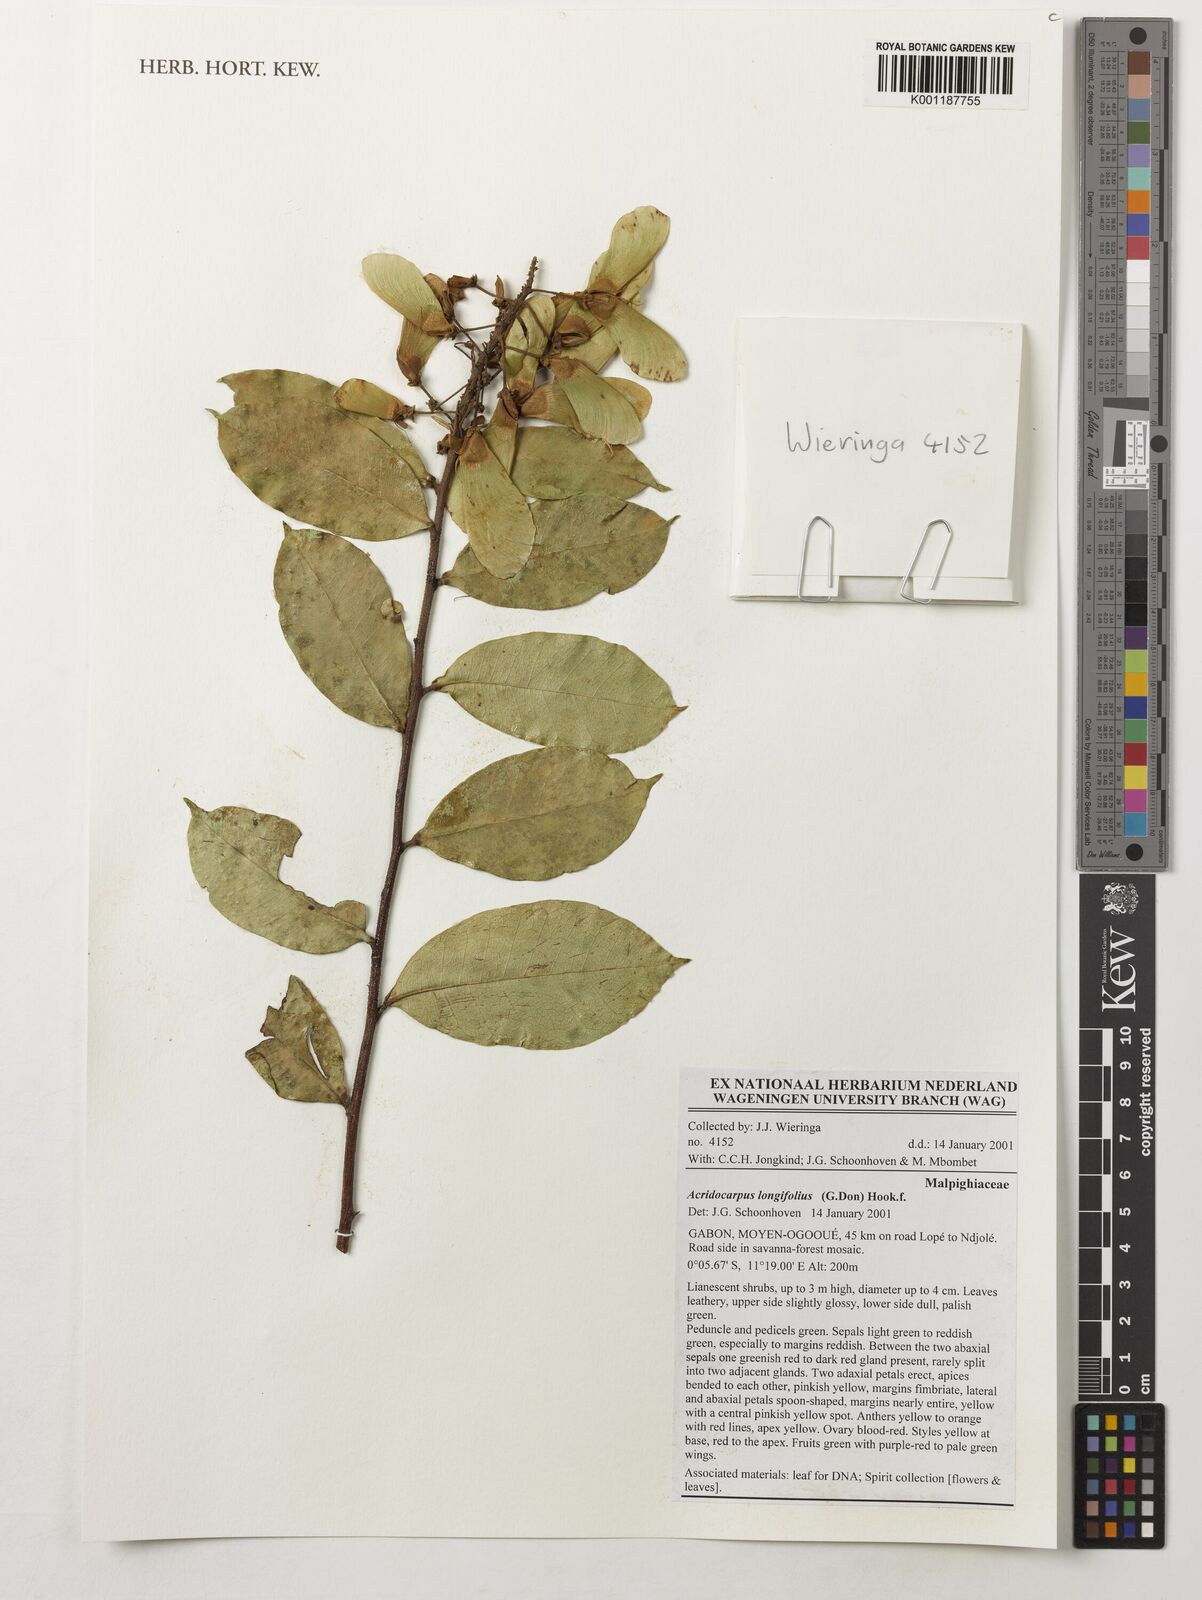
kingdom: Plantae
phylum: Tracheophyta
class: Magnoliopsida
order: Malpighiales
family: Malpighiaceae
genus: Acridocarpus
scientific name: Acridocarpus longifolius
